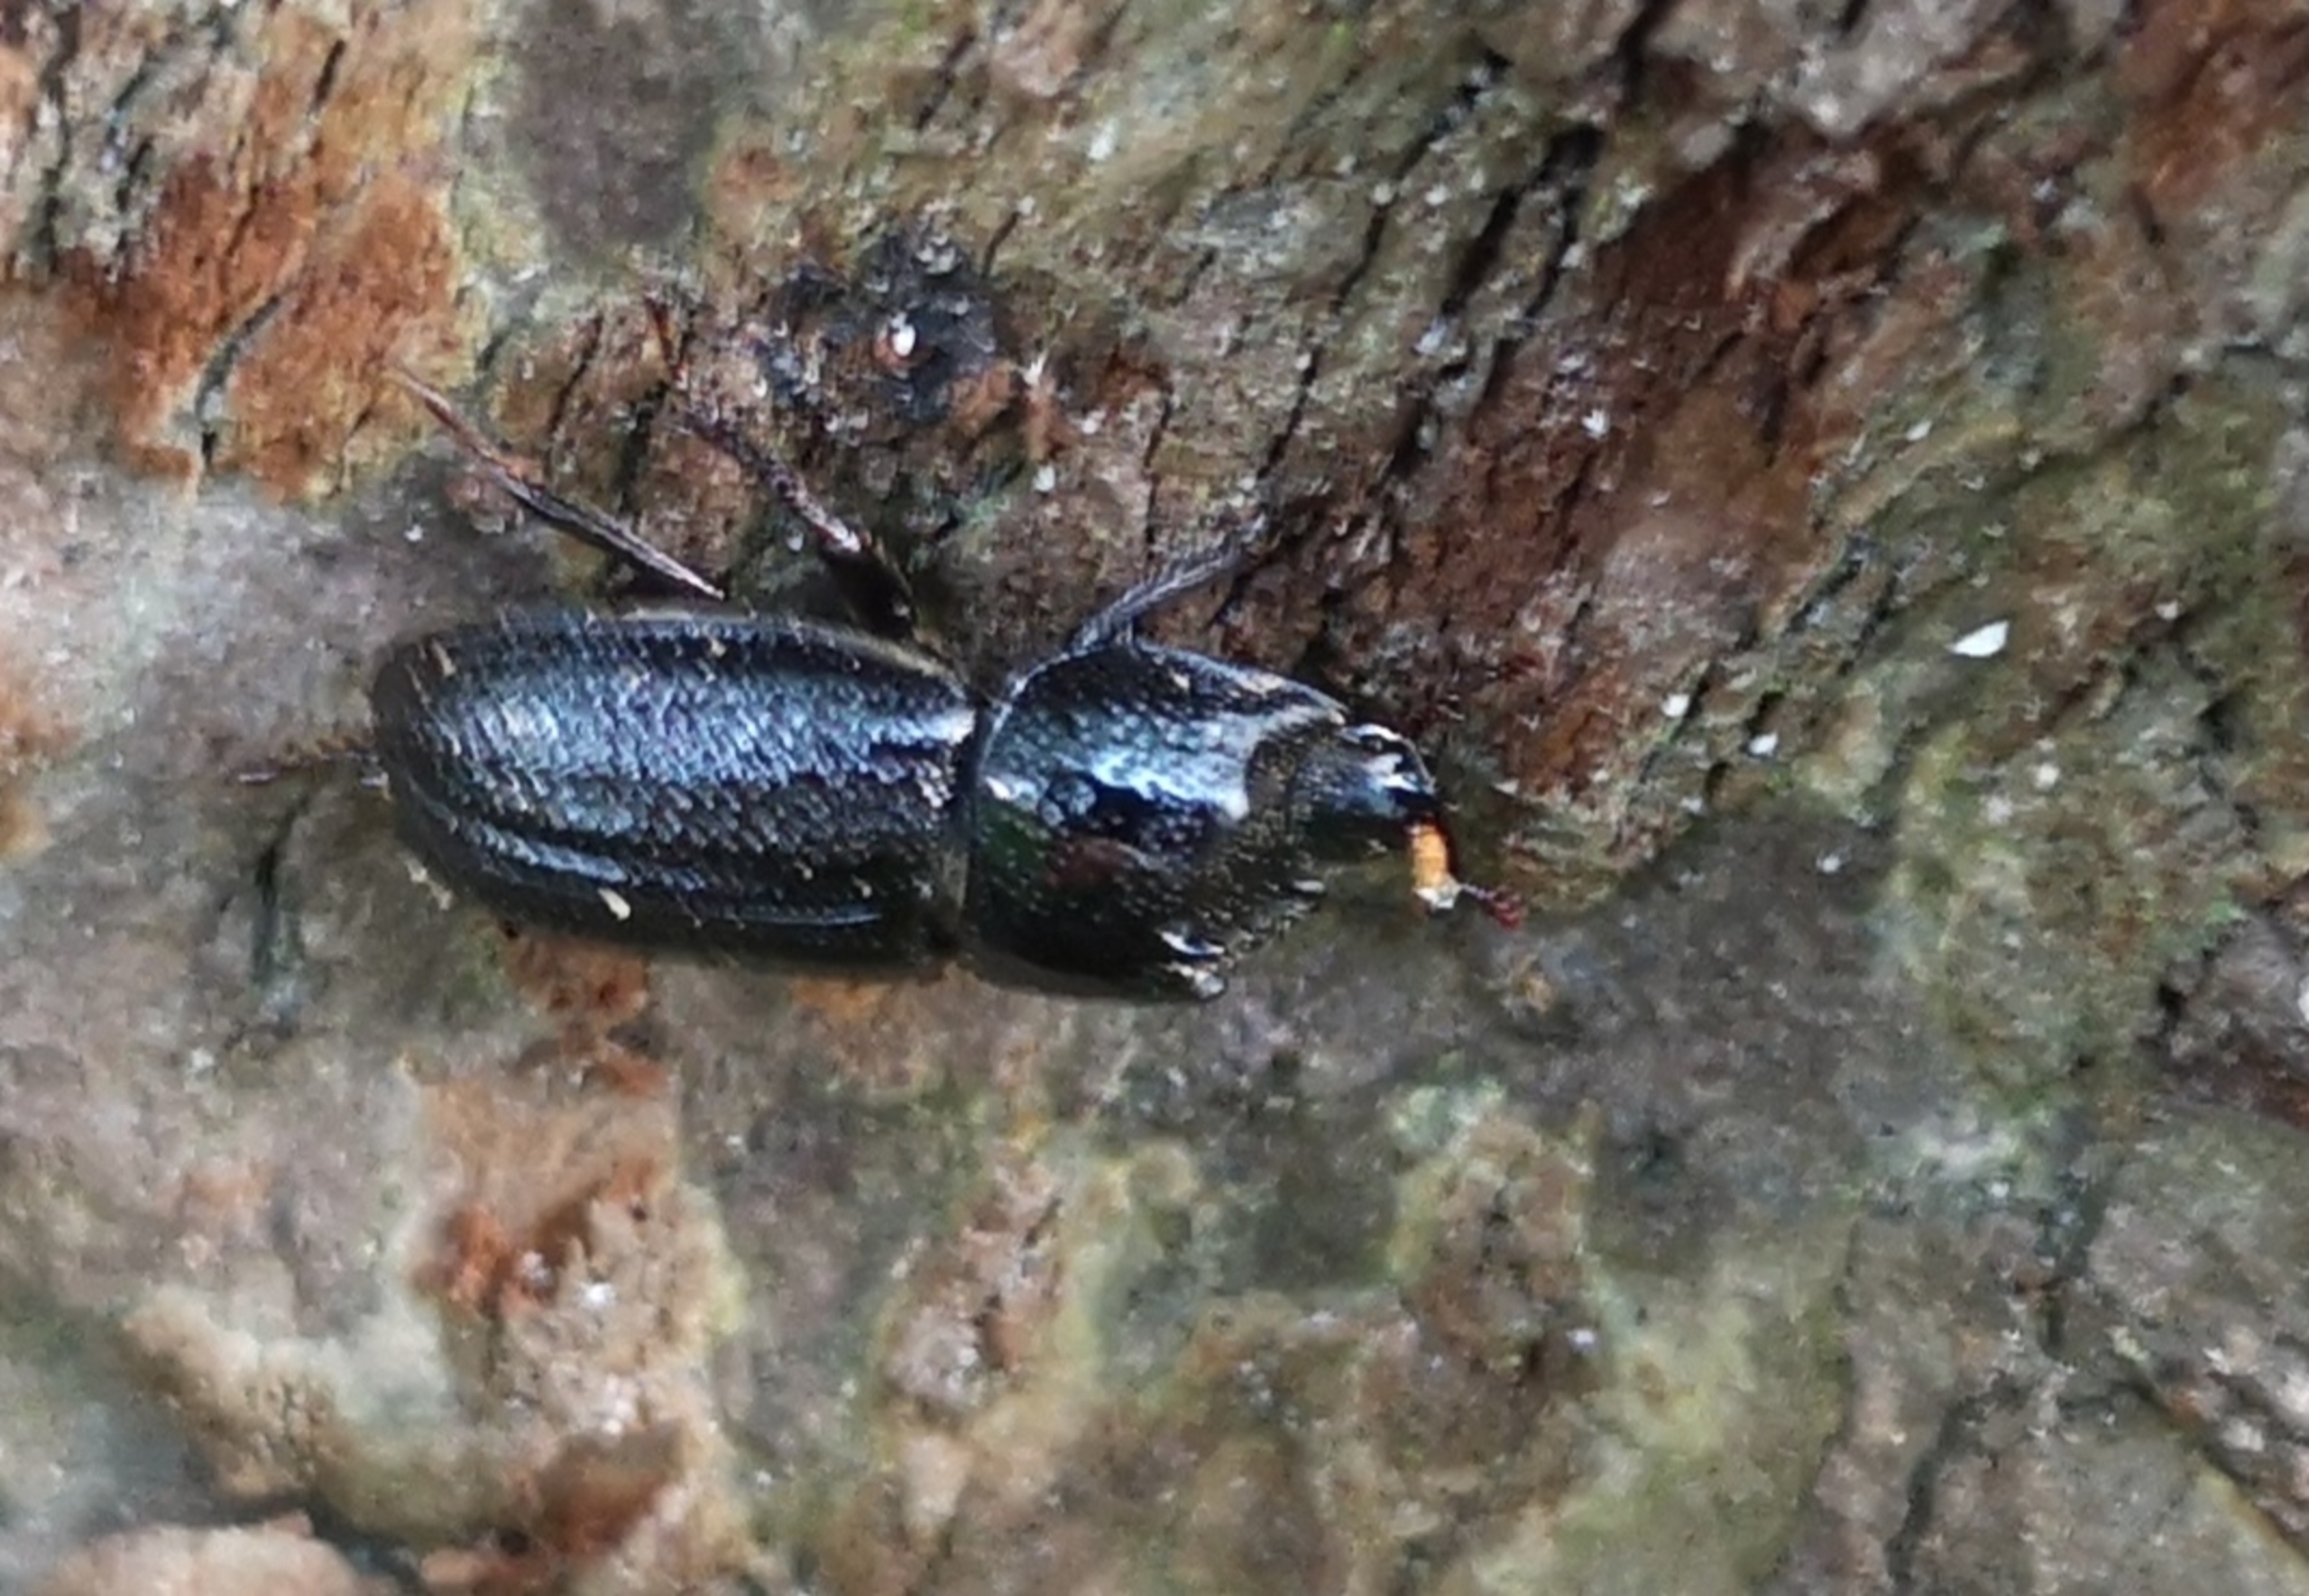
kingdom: Animalia
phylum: Arthropoda
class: Insecta
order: Coleoptera
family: Lucanidae
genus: Sinodendron
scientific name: Sinodendron cylindricum
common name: Valsehjort
